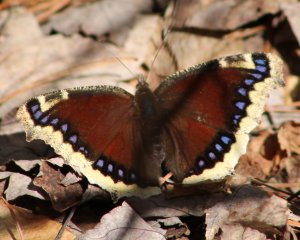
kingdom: Animalia
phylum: Arthropoda
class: Insecta
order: Lepidoptera
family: Nymphalidae
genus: Nymphalis
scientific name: Nymphalis antiopa
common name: Mourning Cloak
